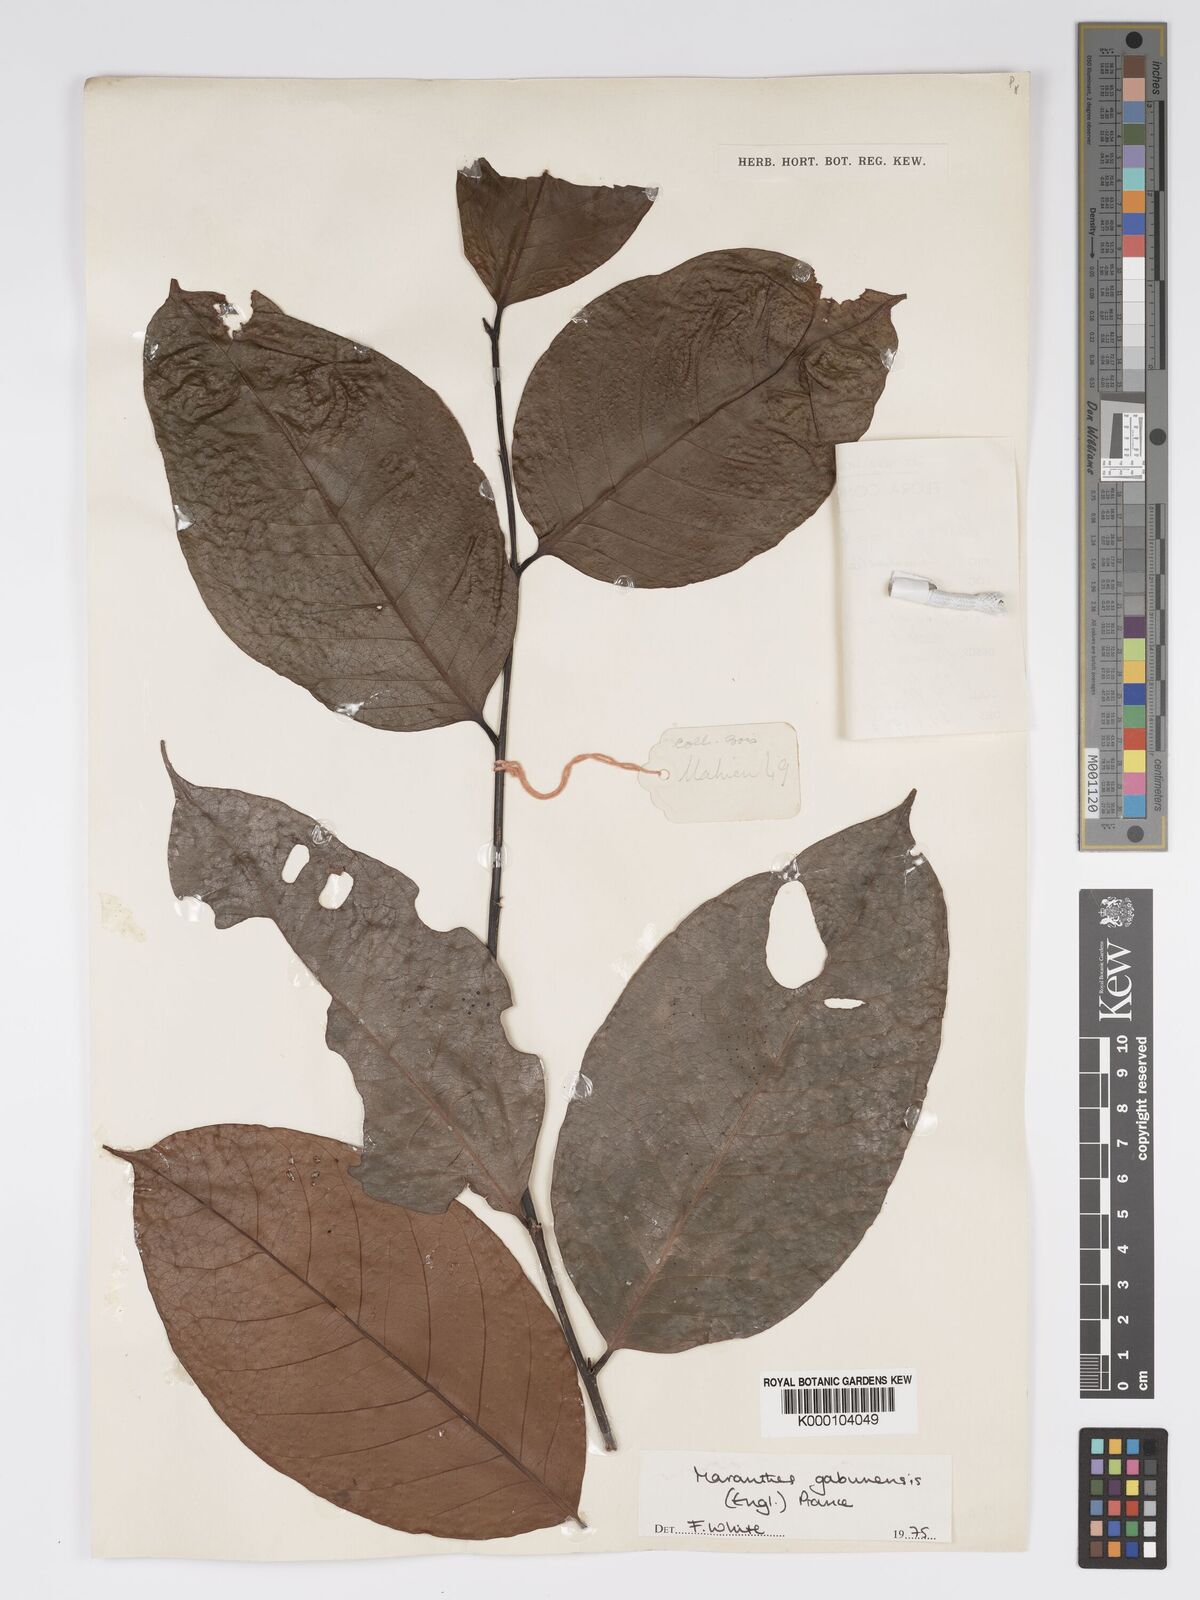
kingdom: Plantae
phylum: Tracheophyta
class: Magnoliopsida
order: Malpighiales
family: Chrysobalanaceae
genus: Maranthes
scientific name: Maranthes gabunensis
